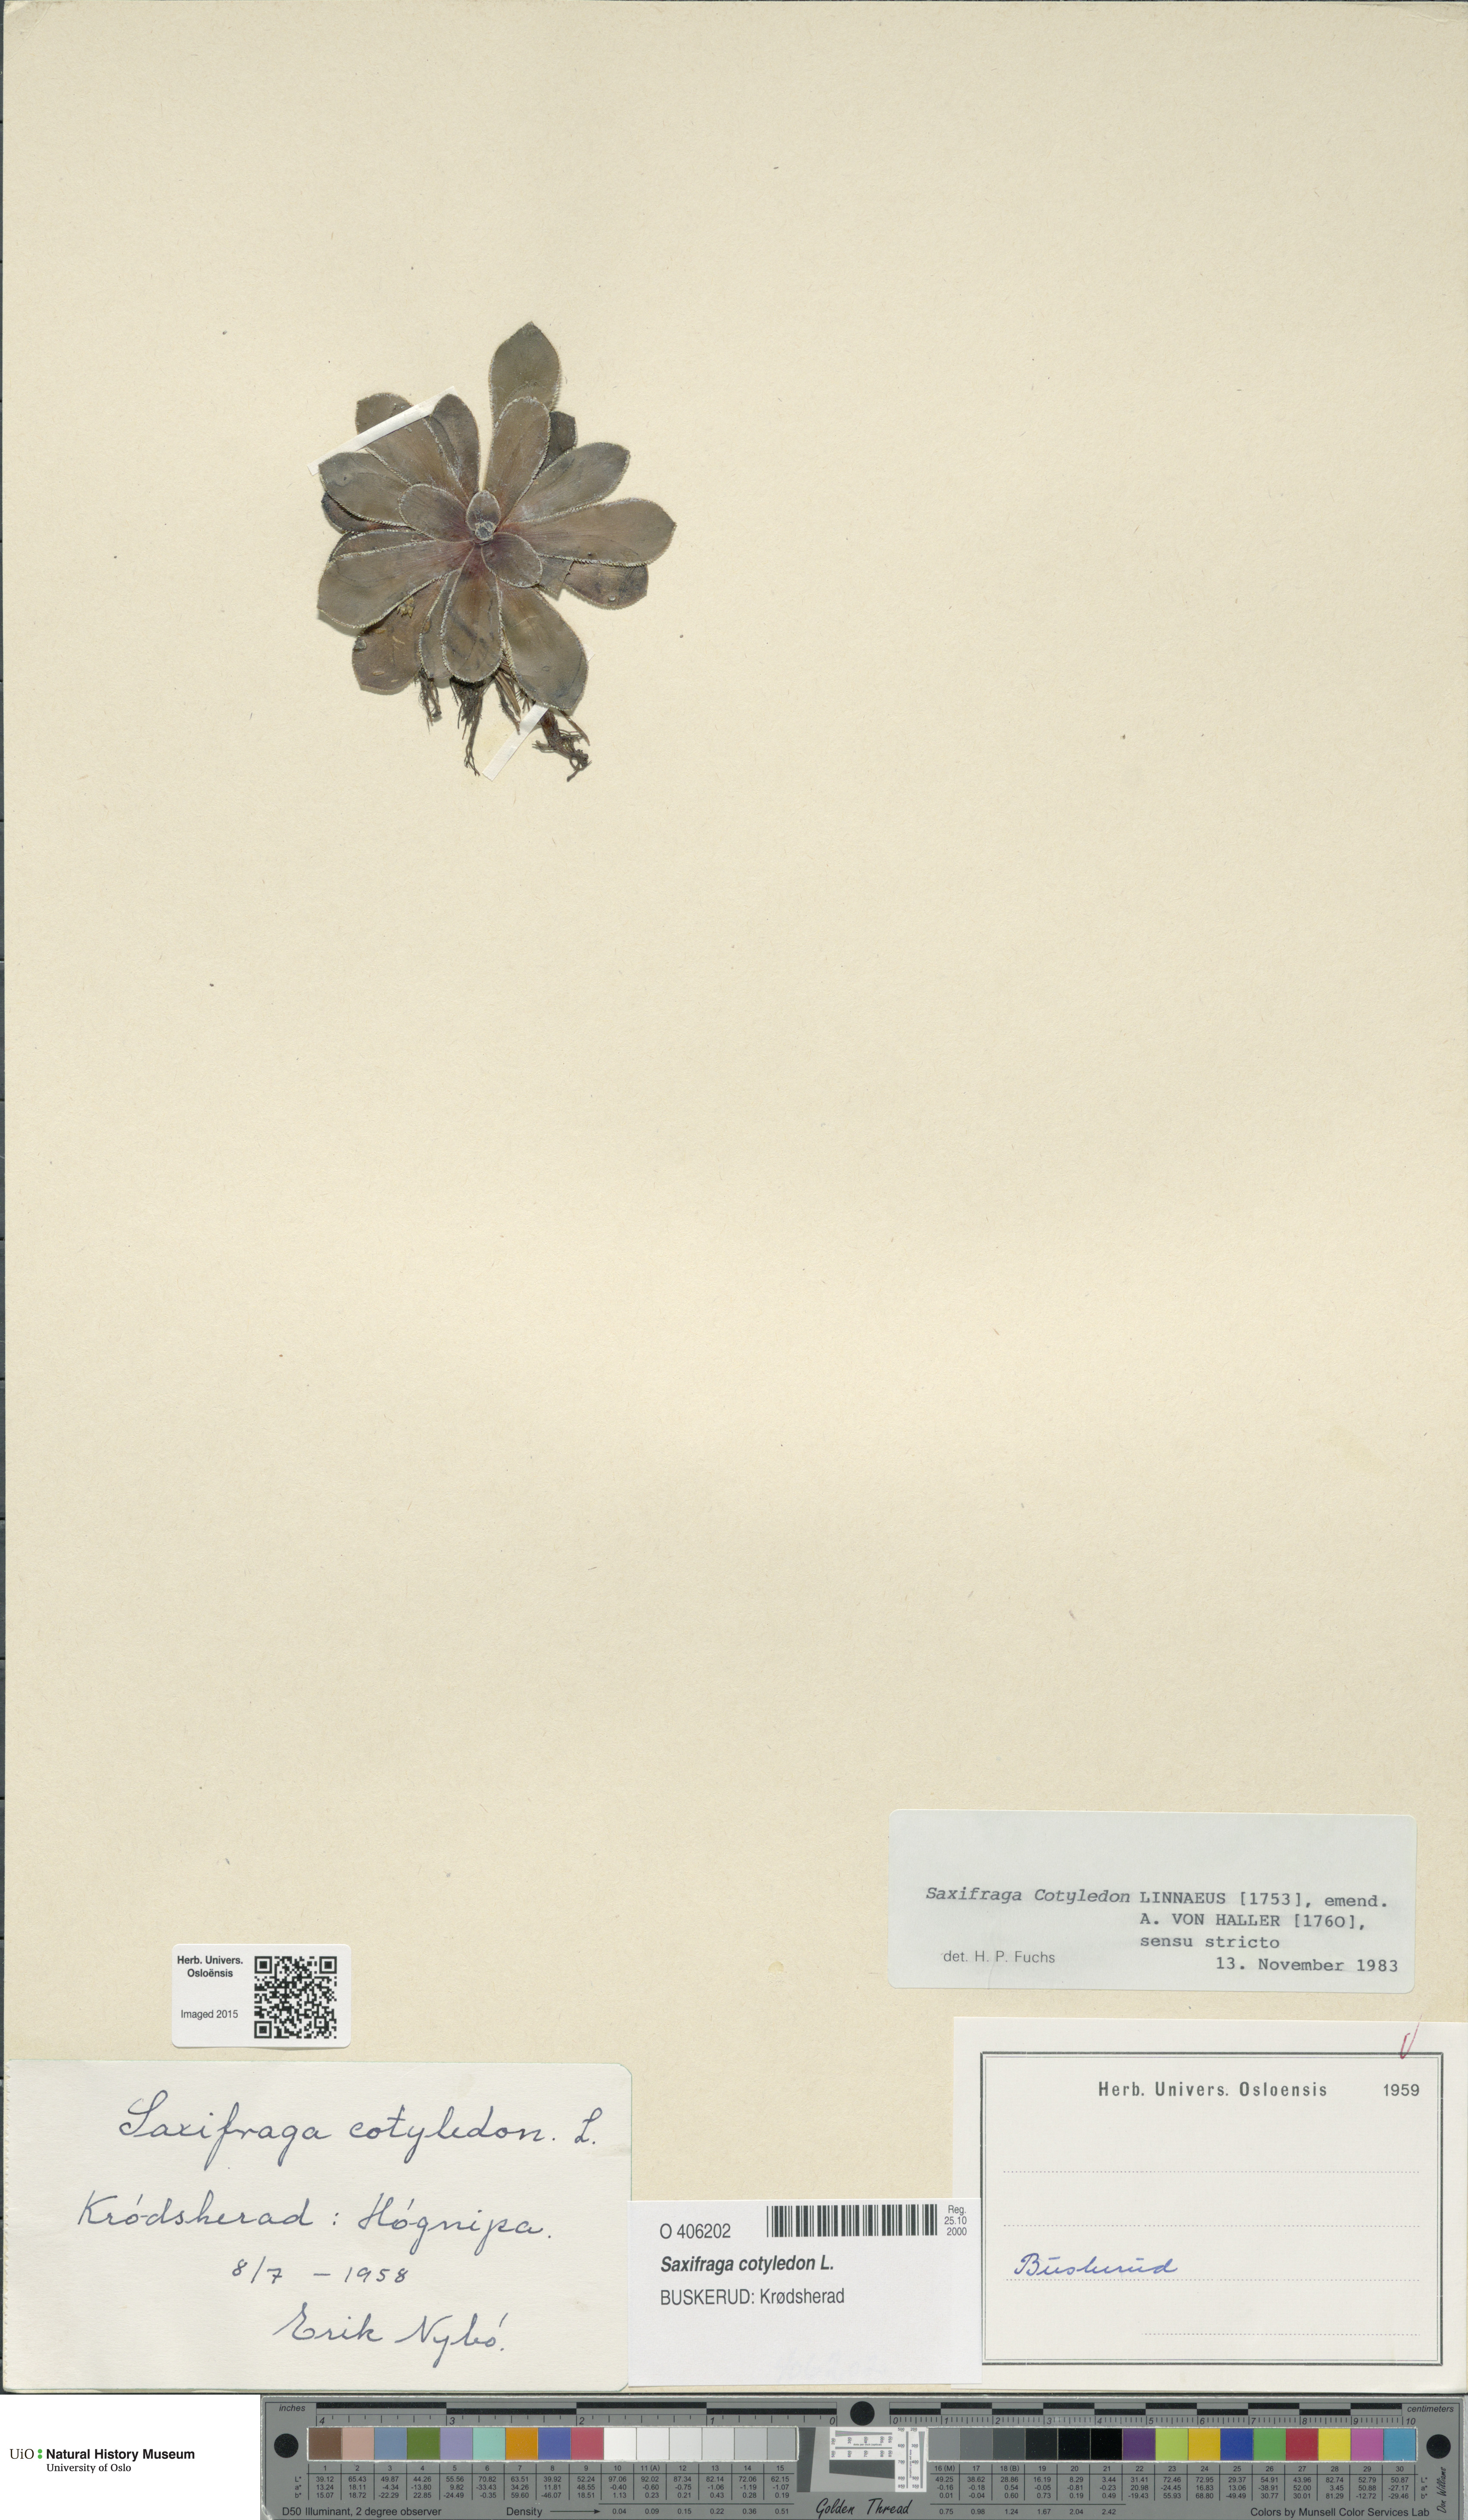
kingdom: Plantae
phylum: Tracheophyta
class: Magnoliopsida
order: Saxifragales
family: Saxifragaceae
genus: Saxifraga
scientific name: Saxifraga cotyledon
